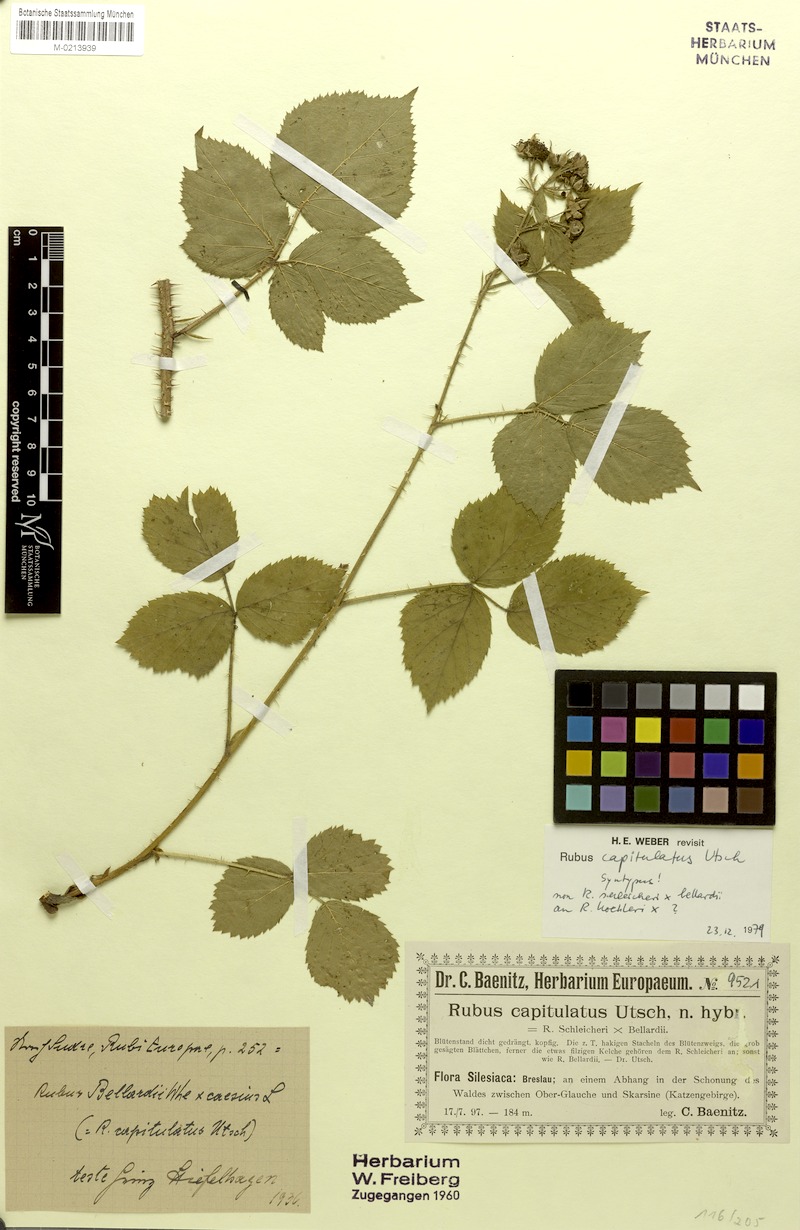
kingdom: Plantae
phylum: Tracheophyta
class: Magnoliopsida
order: Rosales
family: Rosaceae
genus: Rubus
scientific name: Rubus capitulatus
